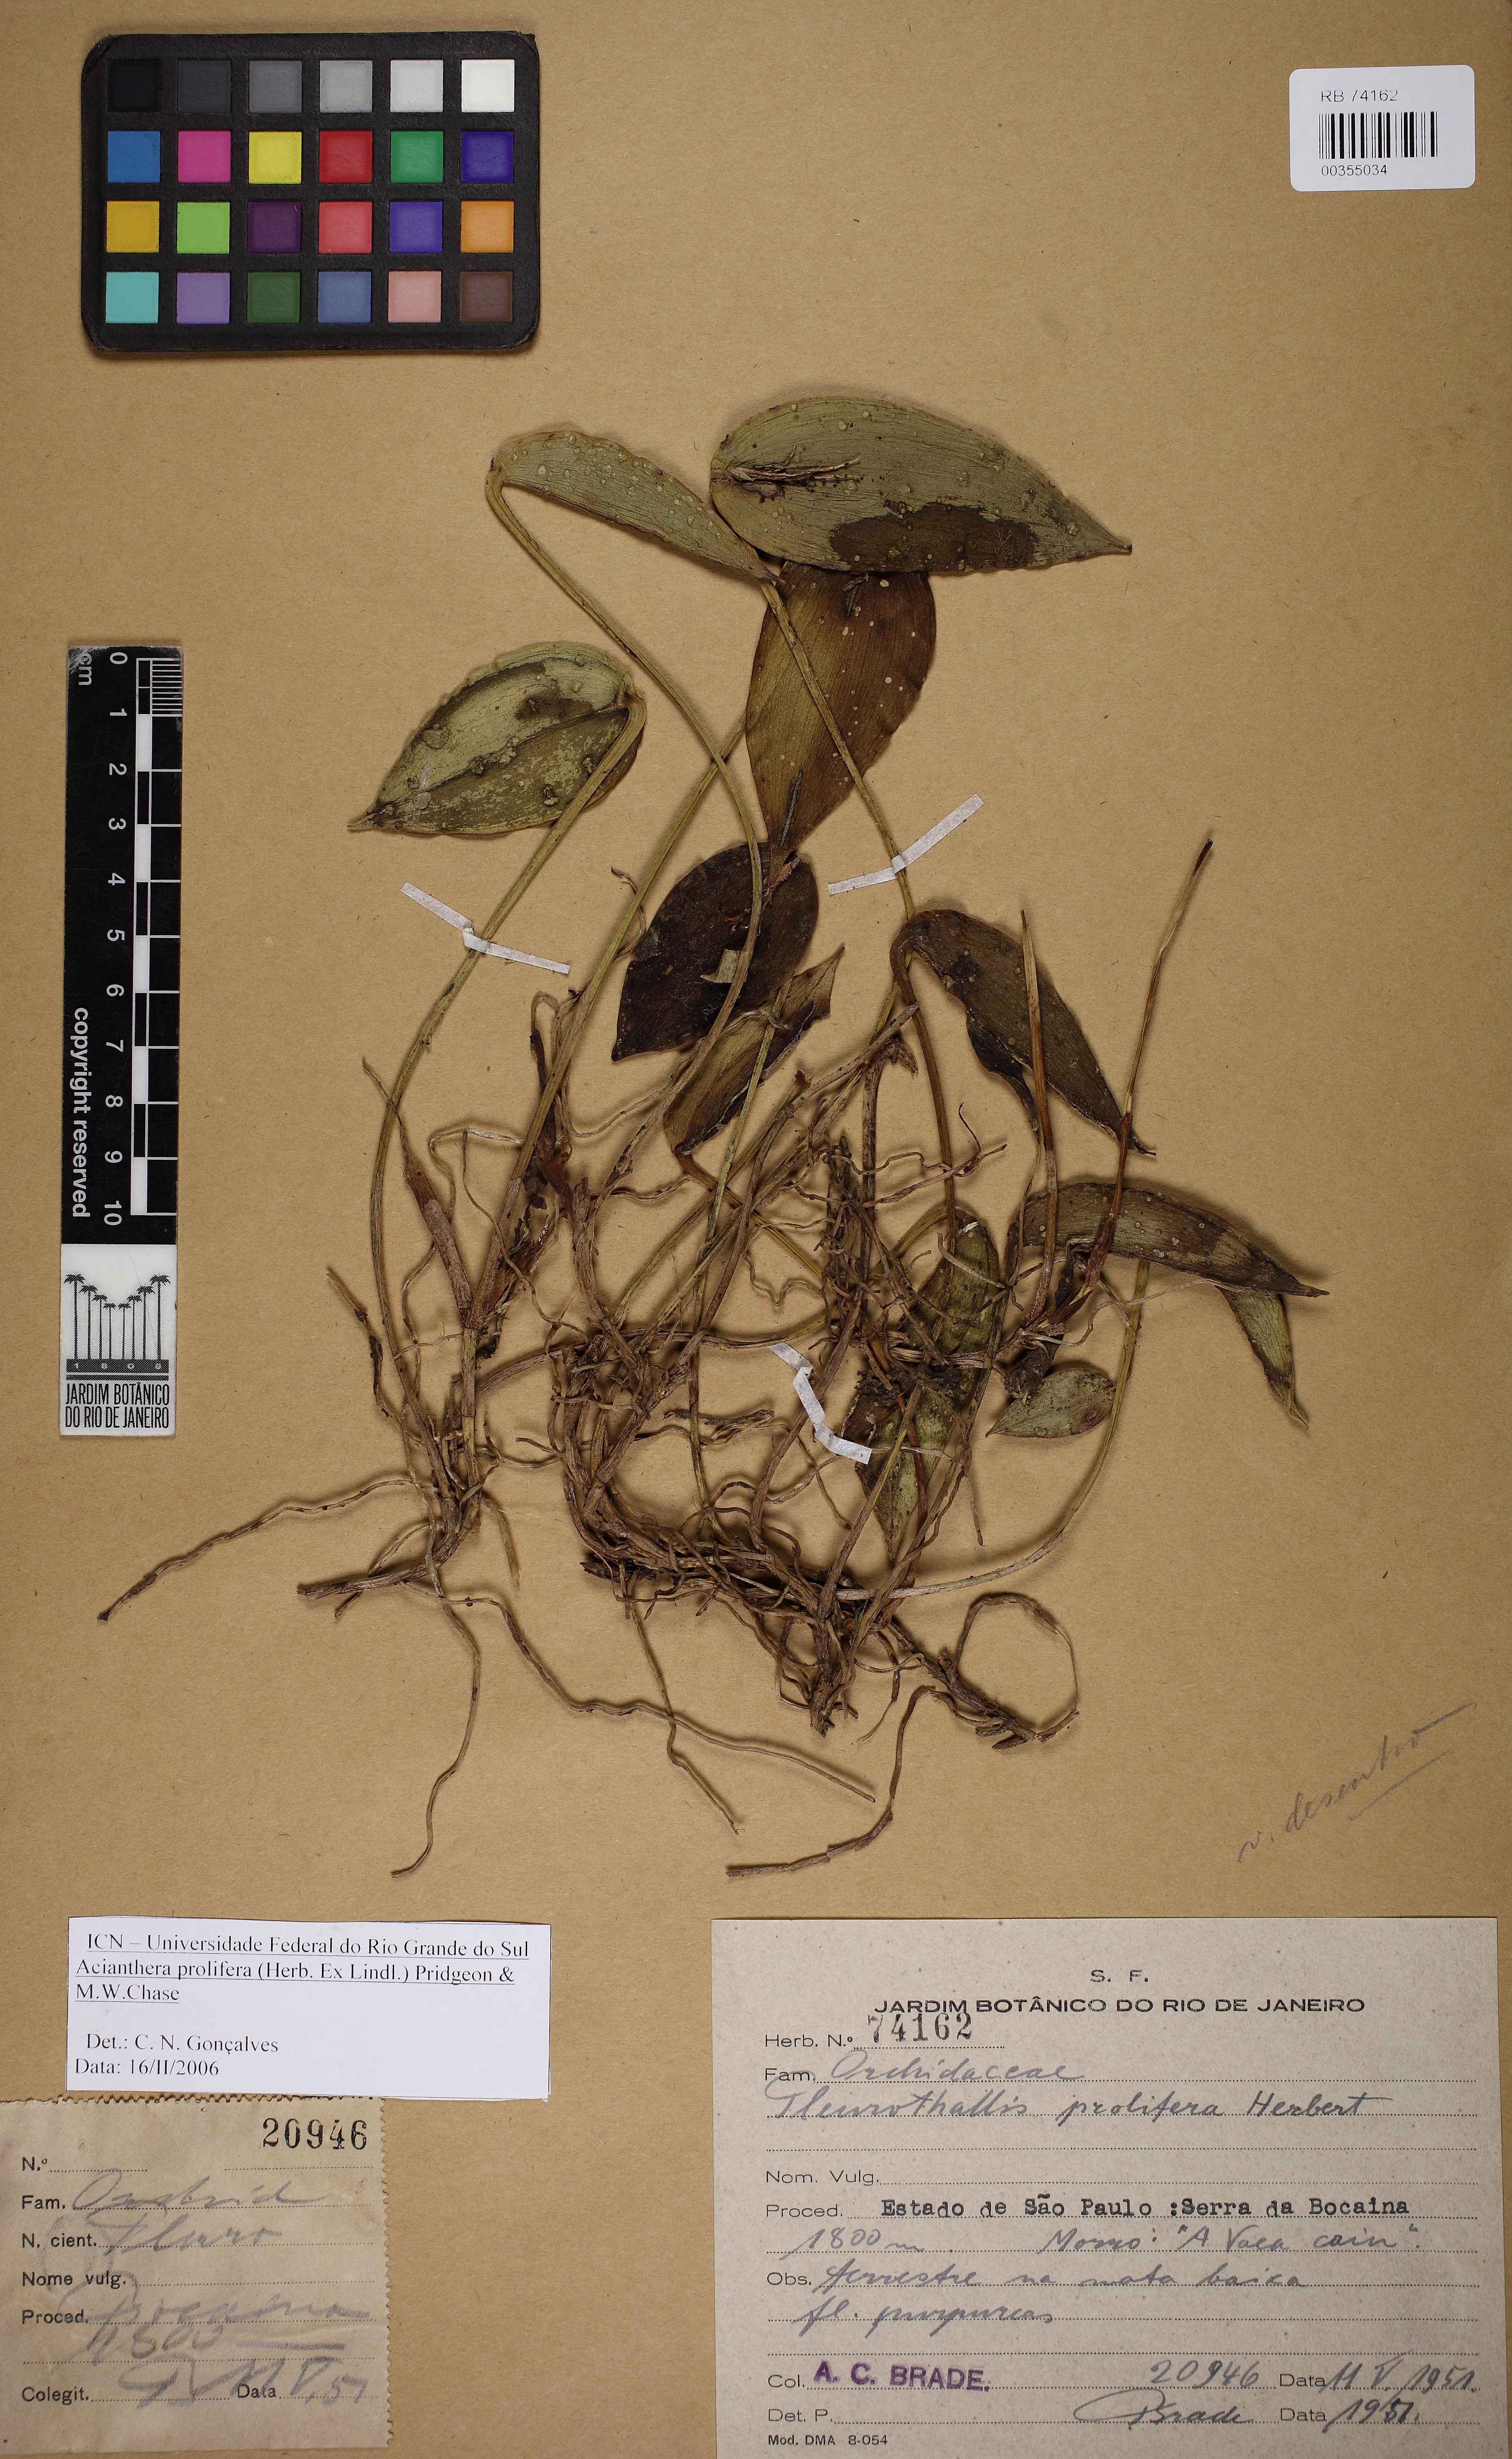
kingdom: Plantae
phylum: Tracheophyta
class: Liliopsida
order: Asparagales
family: Orchidaceae
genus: Acianthera
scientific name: Acianthera prolifera
